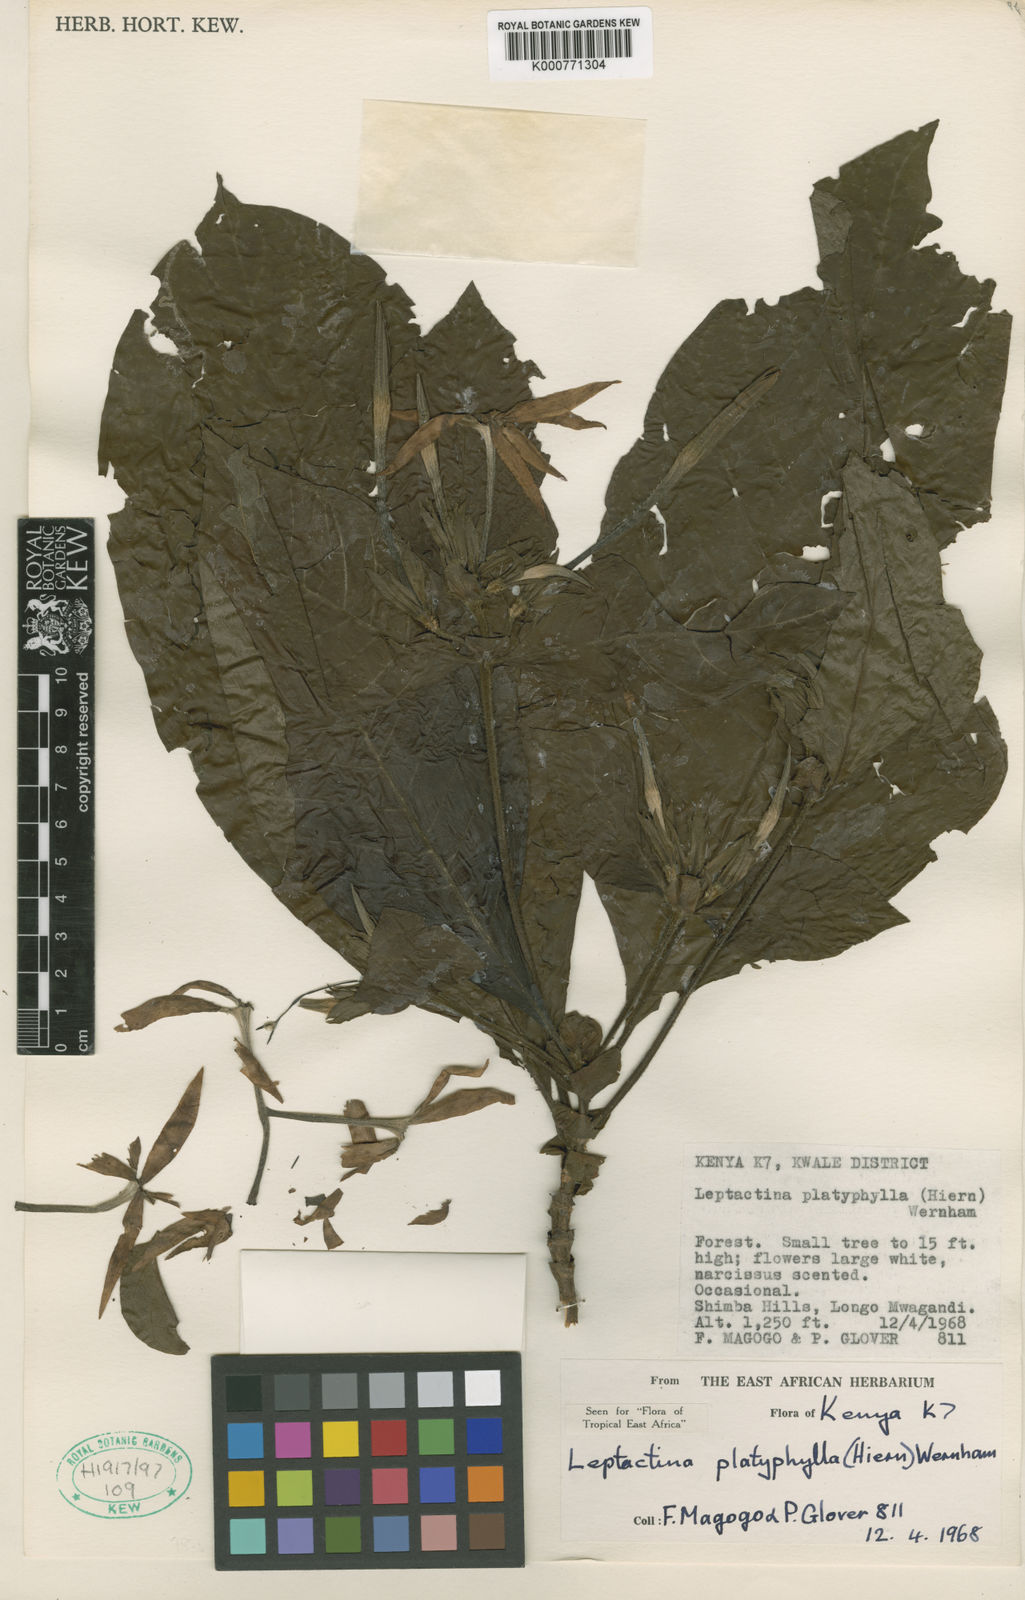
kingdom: Plantae
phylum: Tracheophyta
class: Magnoliopsida
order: Gentianales
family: Rubiaceae
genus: Leptactina
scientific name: Leptactina platyphylla
